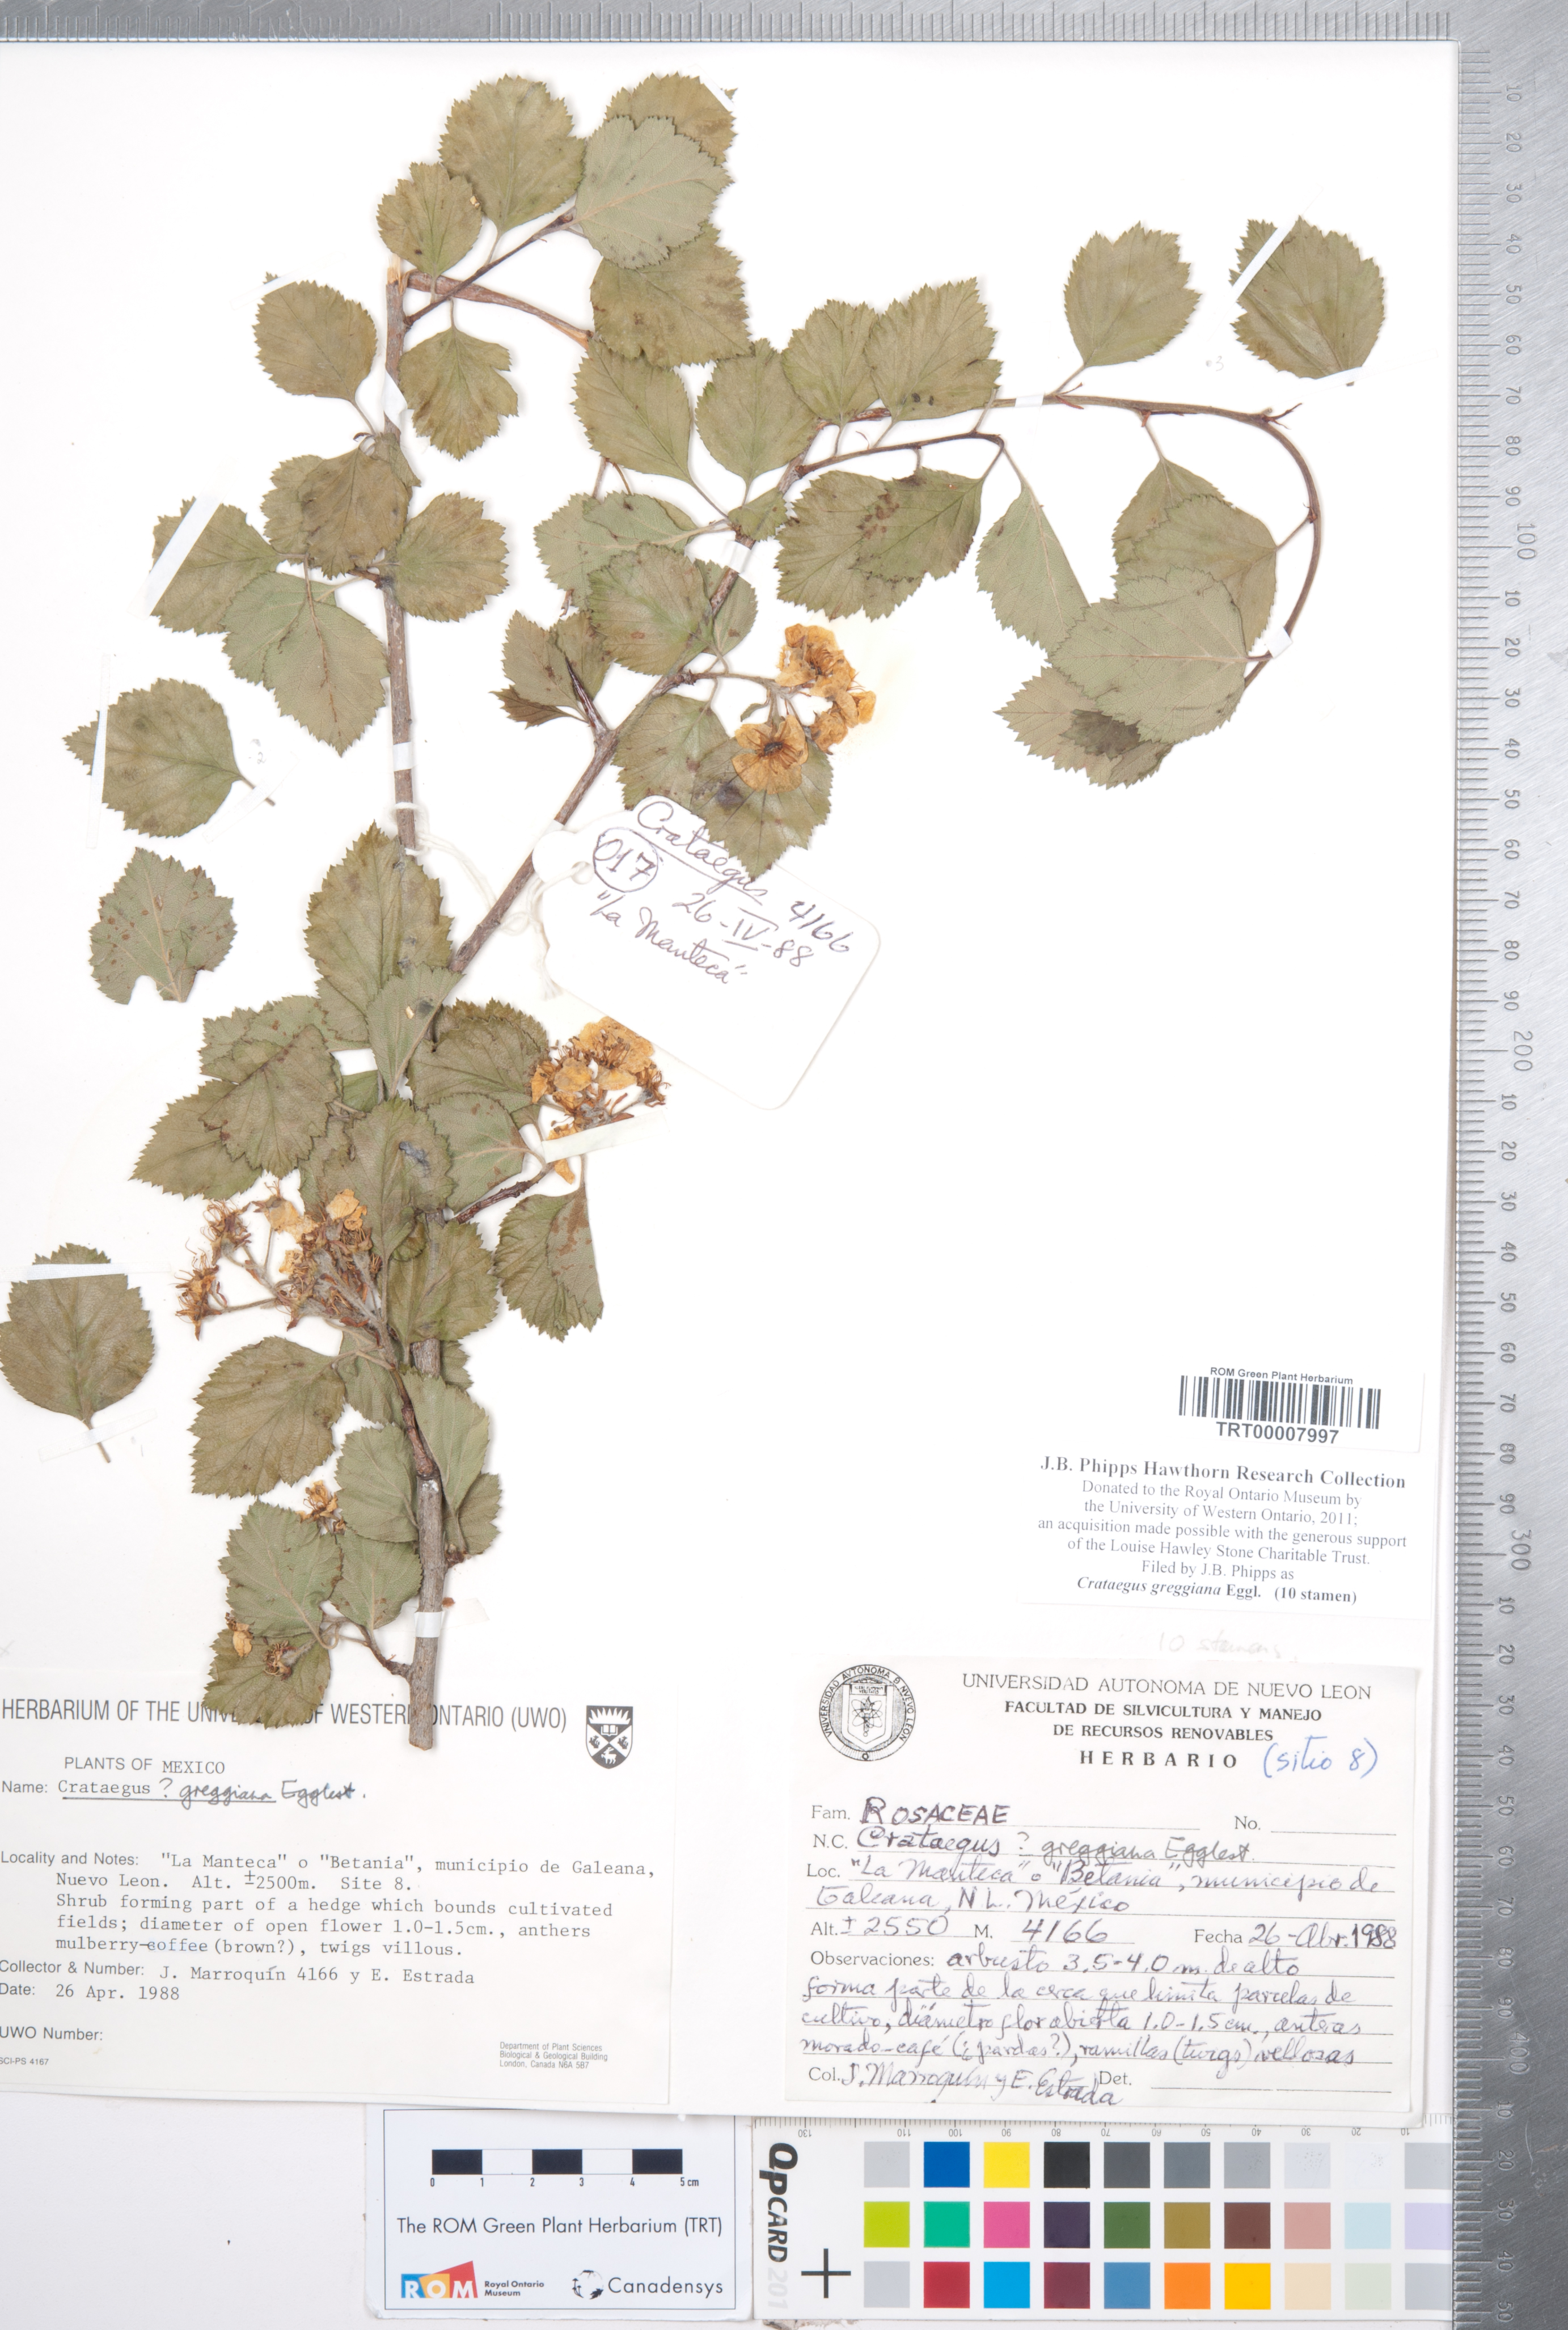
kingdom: Plantae
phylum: Tracheophyta
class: Magnoliopsida
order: Rosales
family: Rosaceae
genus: Crataegus
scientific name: Crataegus greggiana
